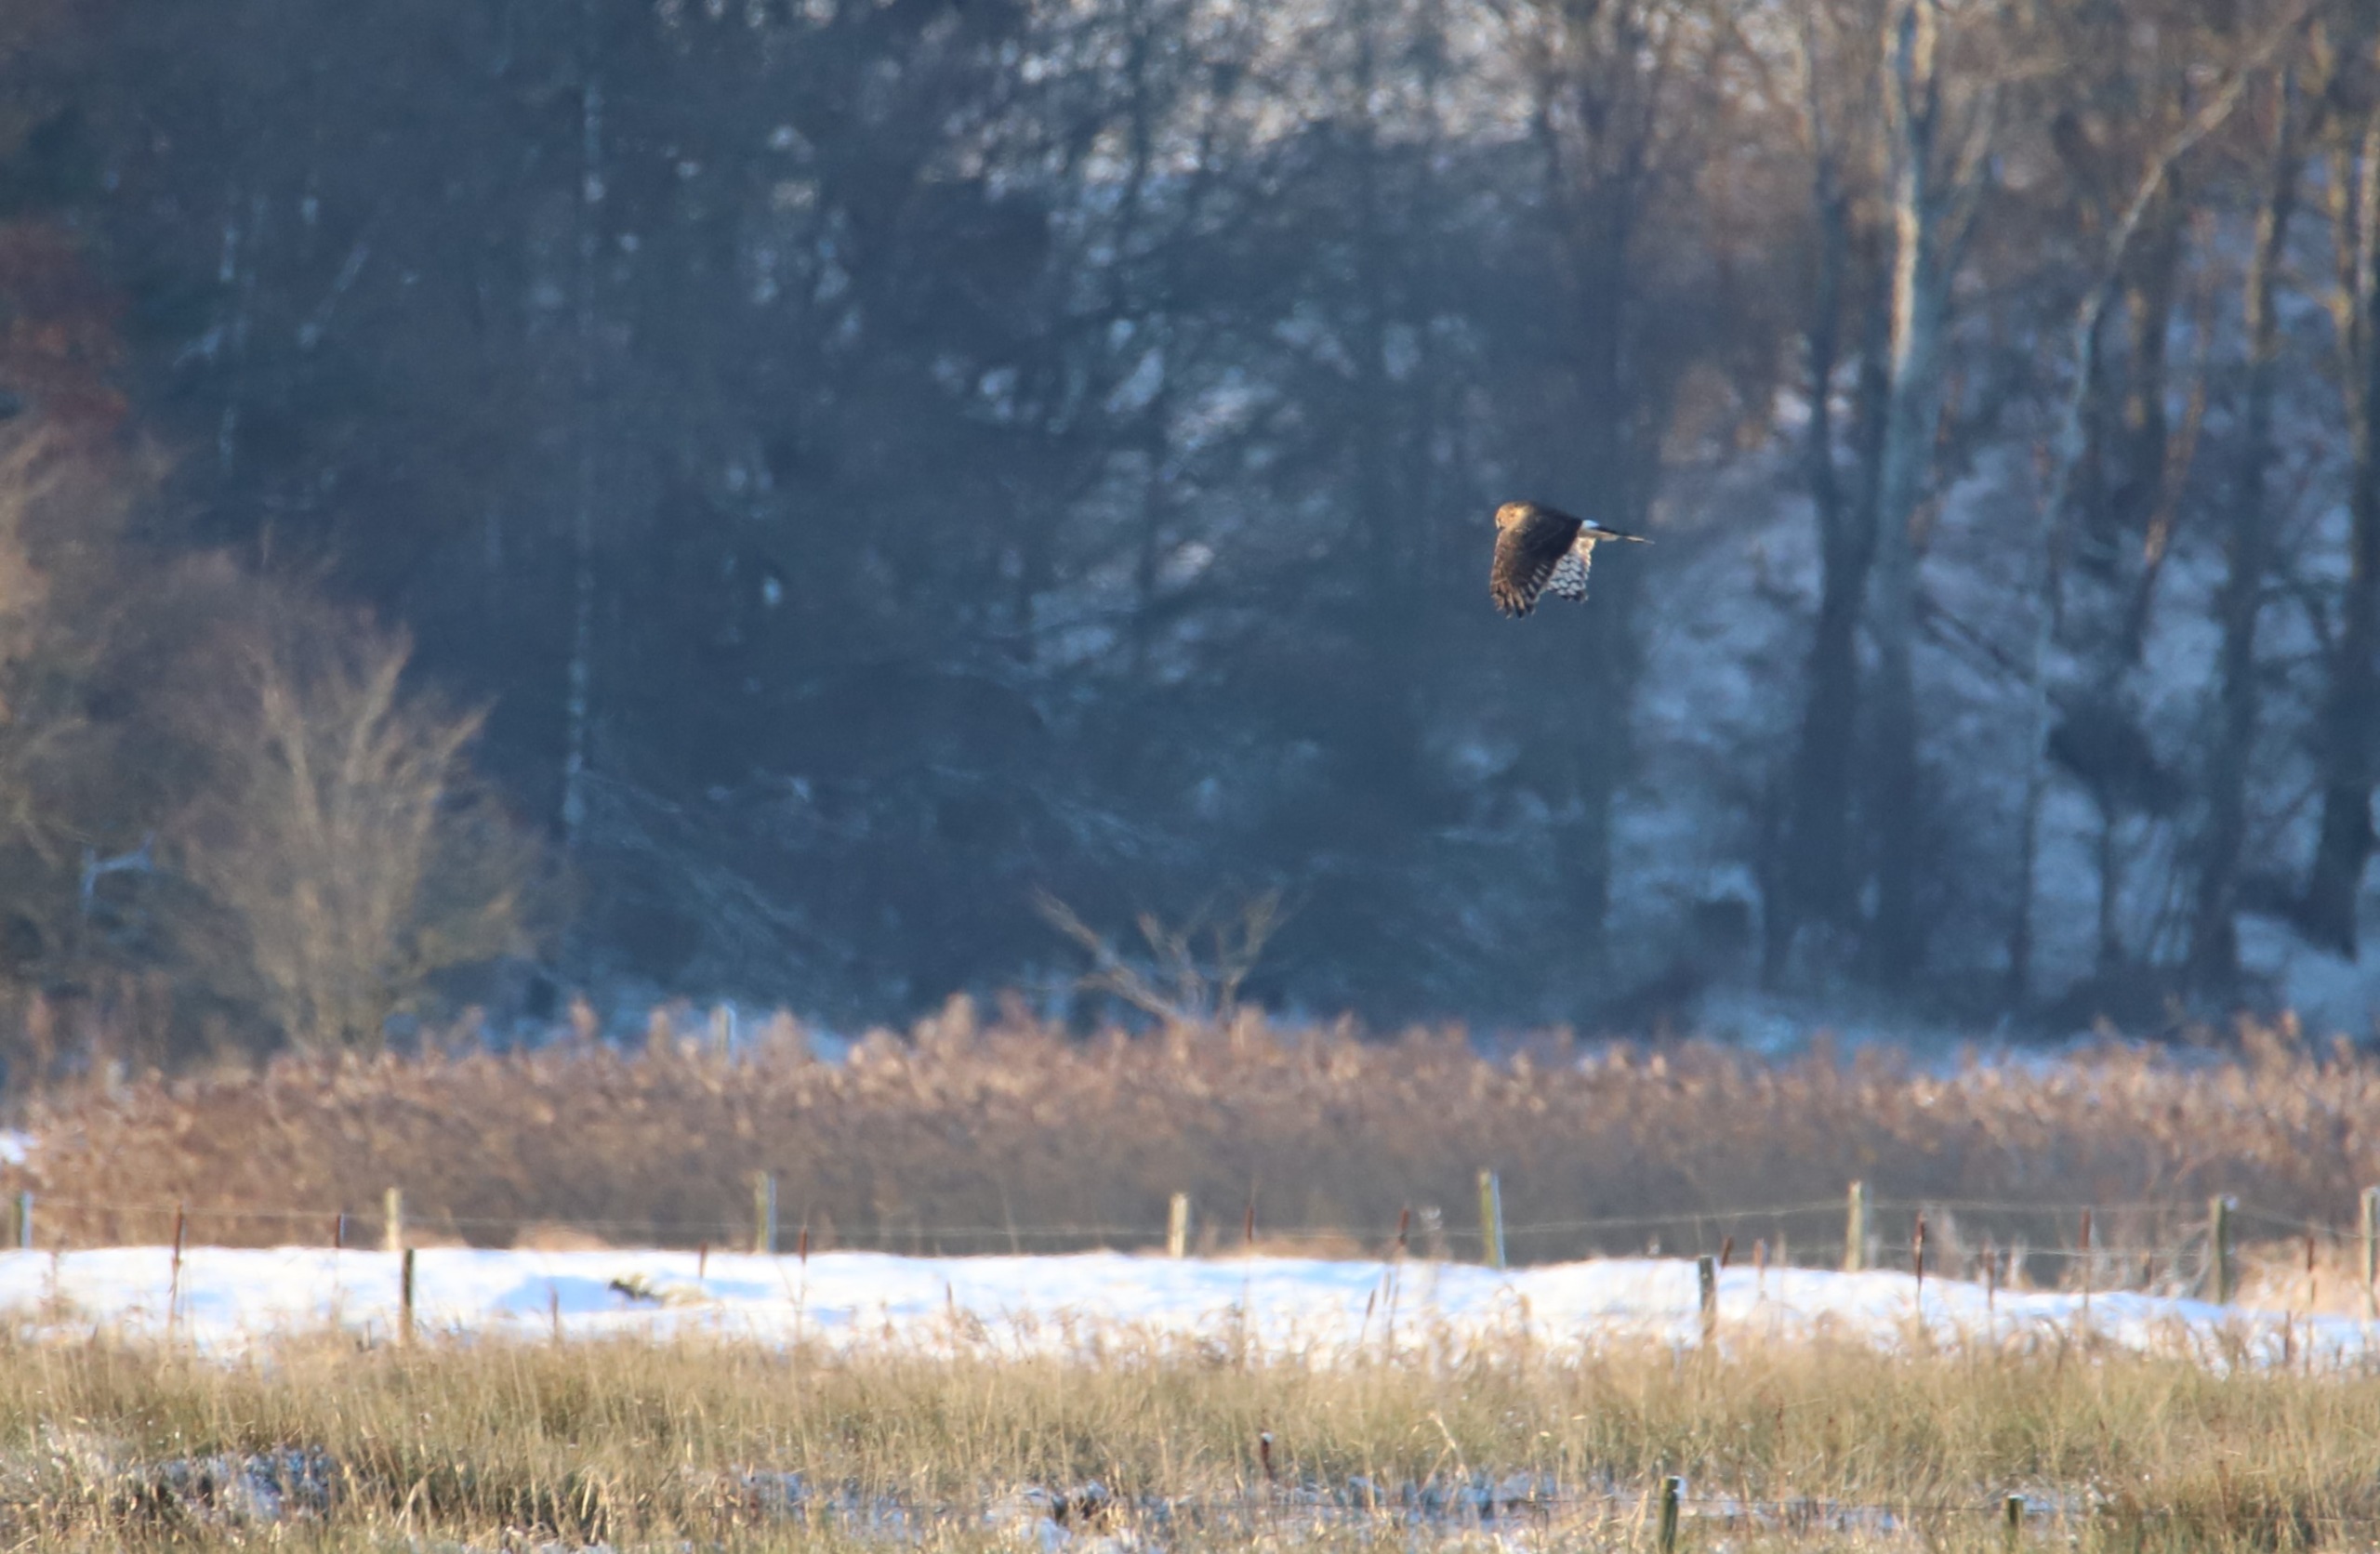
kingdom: Animalia
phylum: Chordata
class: Aves
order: Accipitriformes
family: Accipitridae
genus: Circus
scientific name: Circus cyaneus
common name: Blå kærhøg
